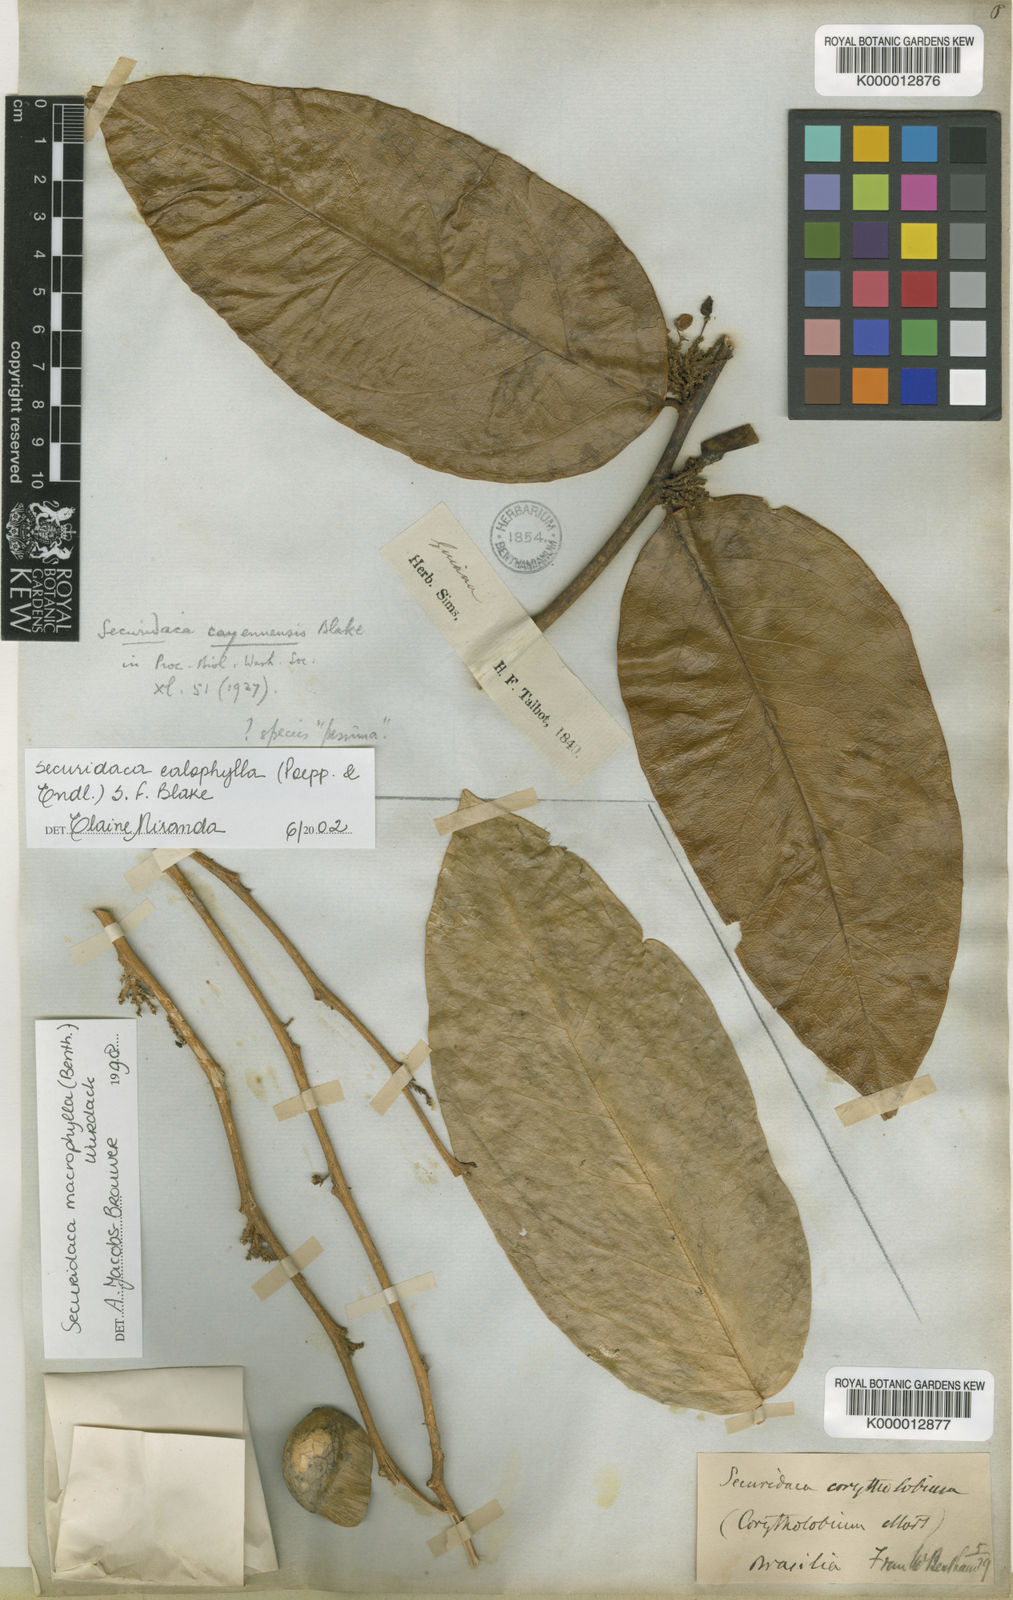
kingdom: Plantae
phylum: Tracheophyta
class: Magnoliopsida
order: Fabales
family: Polygalaceae
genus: Securidaca
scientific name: Securidaca calophylla
